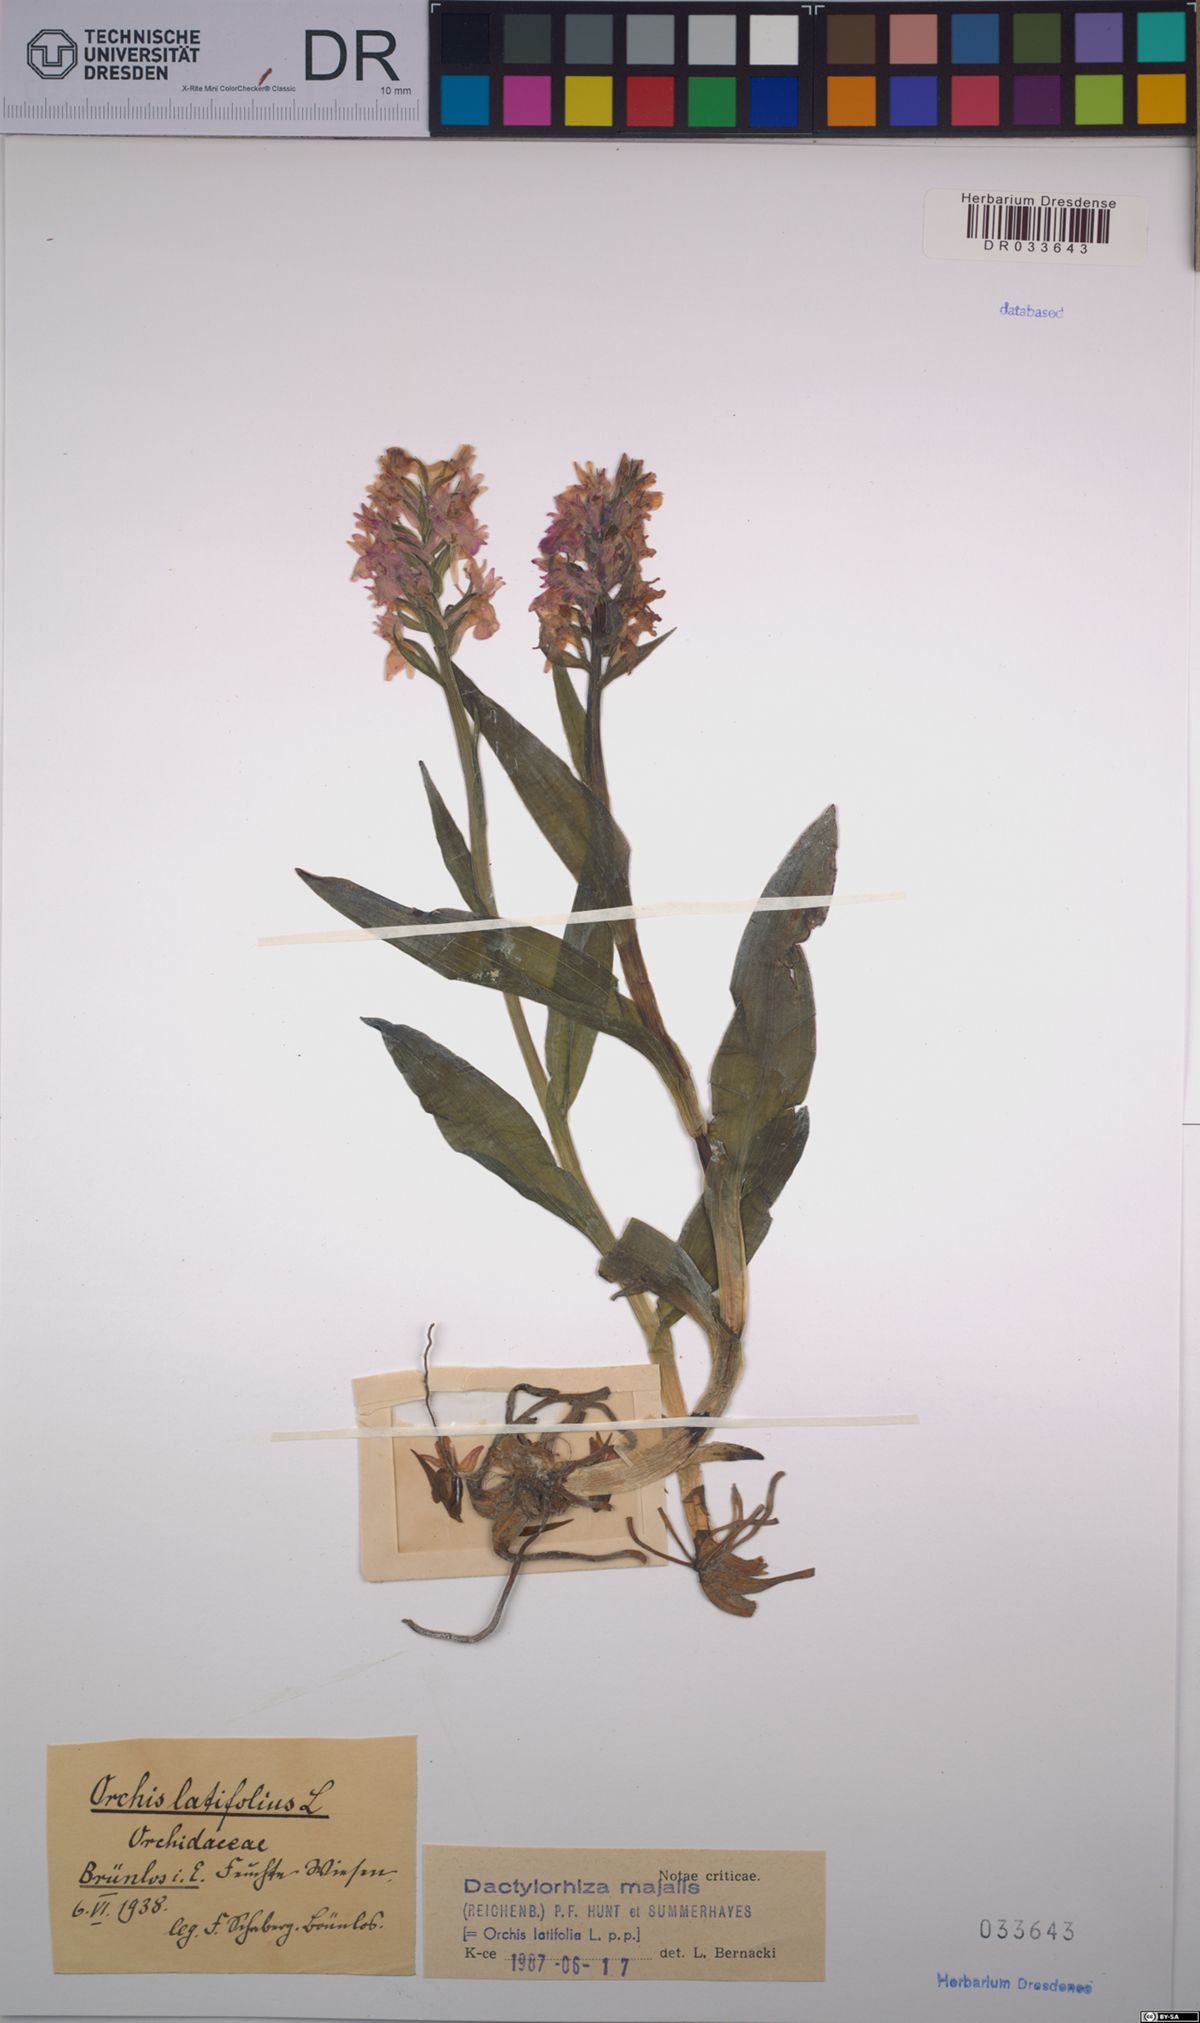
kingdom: Plantae
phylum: Tracheophyta
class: Liliopsida
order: Asparagales
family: Orchidaceae
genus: Dactylorhiza
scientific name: Dactylorhiza majalis
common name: Marsh orchid
